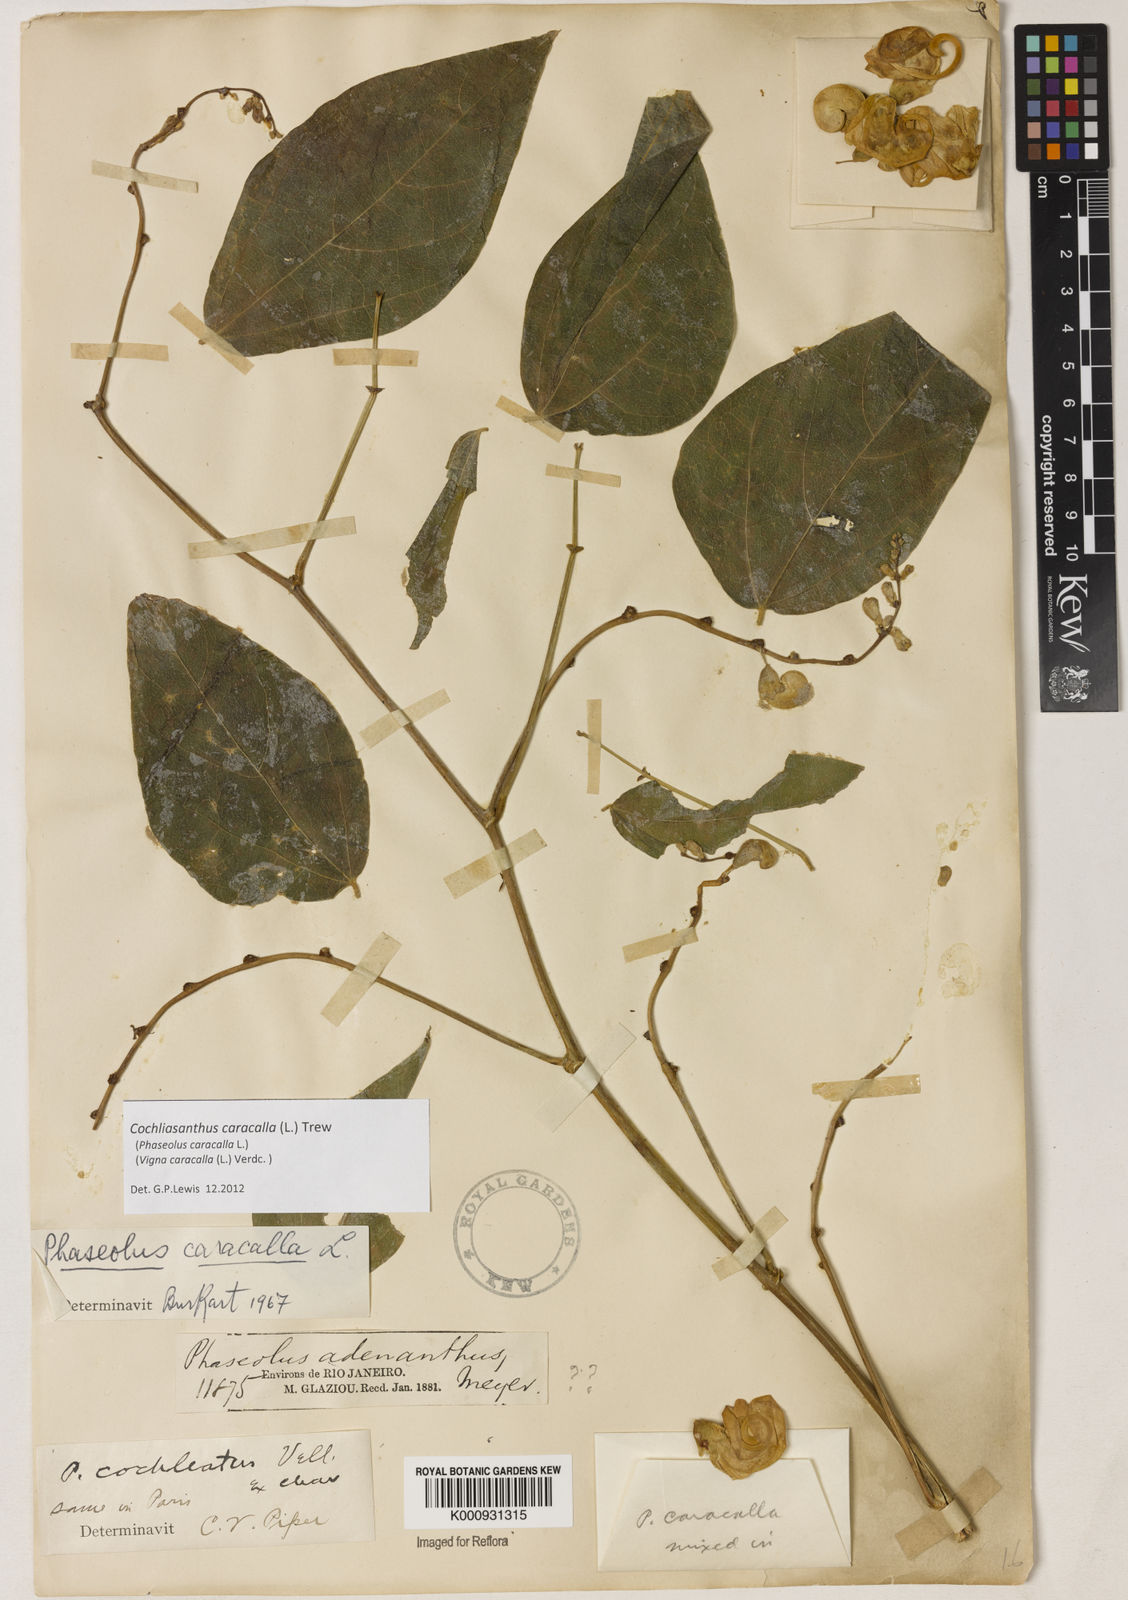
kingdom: Plantae
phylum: Tracheophyta
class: Magnoliopsida
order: Fabales
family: Fabaceae
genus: Cochliasanthus
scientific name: Cochliasanthus caracalla
